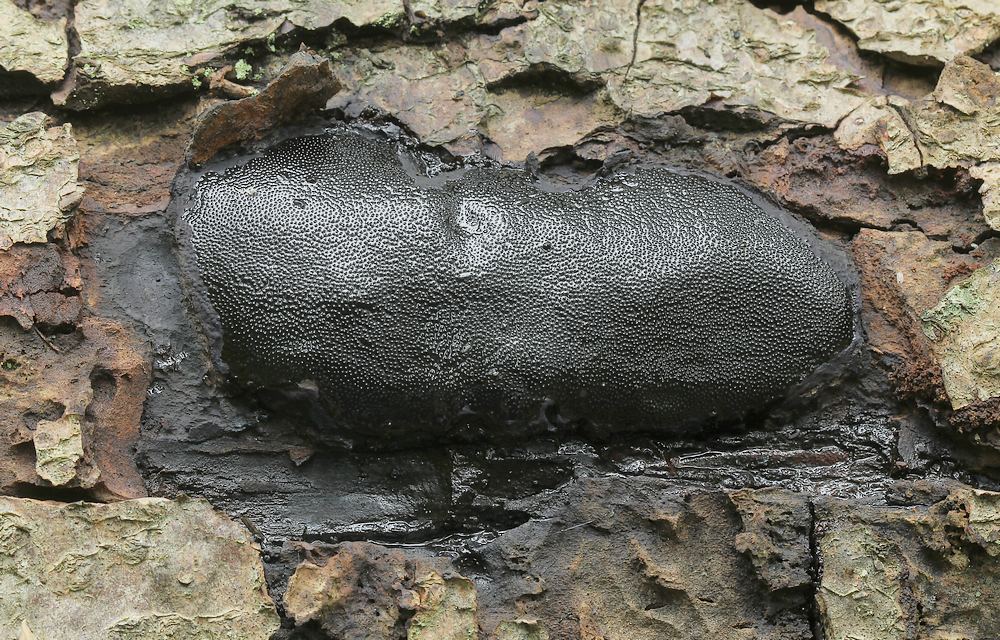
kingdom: Fungi
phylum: Ascomycota
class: Sordariomycetes
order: Boliniales
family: Boliniaceae
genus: Camarops
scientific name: Camarops polysperma
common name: elle-kulsnegl
